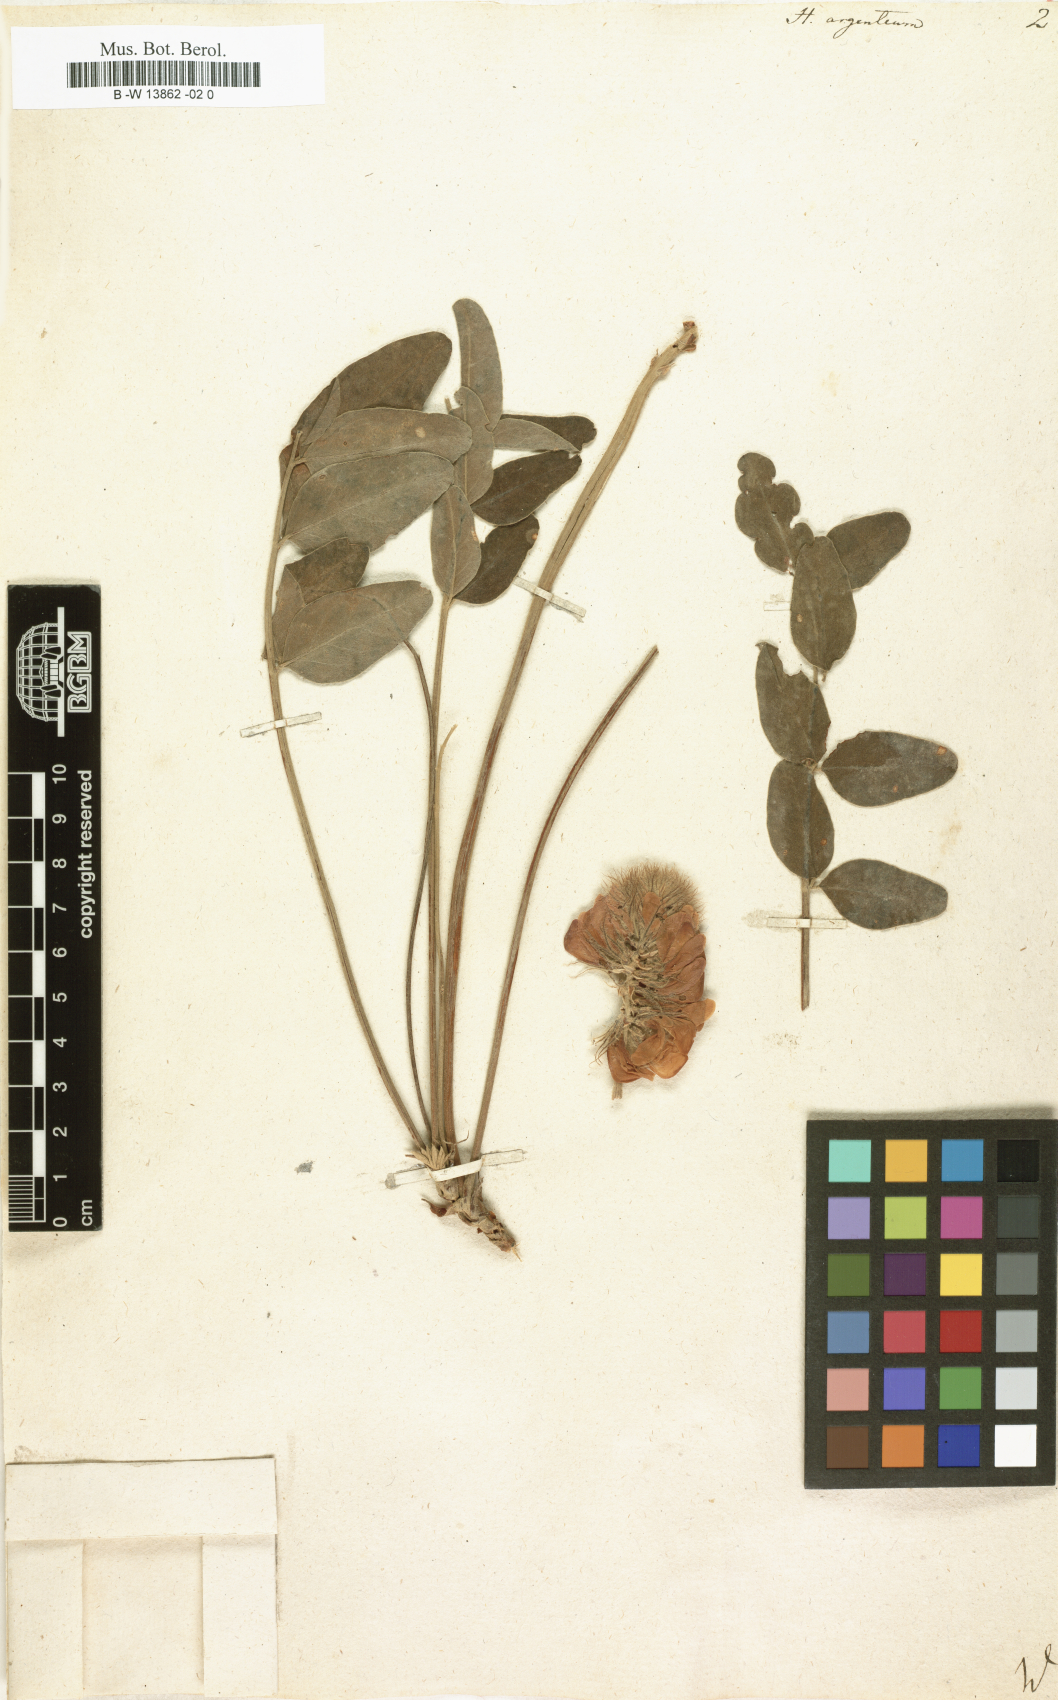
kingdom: Plantae
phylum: Tracheophyta
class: Magnoliopsida
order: Fabales
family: Fabaceae
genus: Hedysarum
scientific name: Hedysarum grandiflorum
